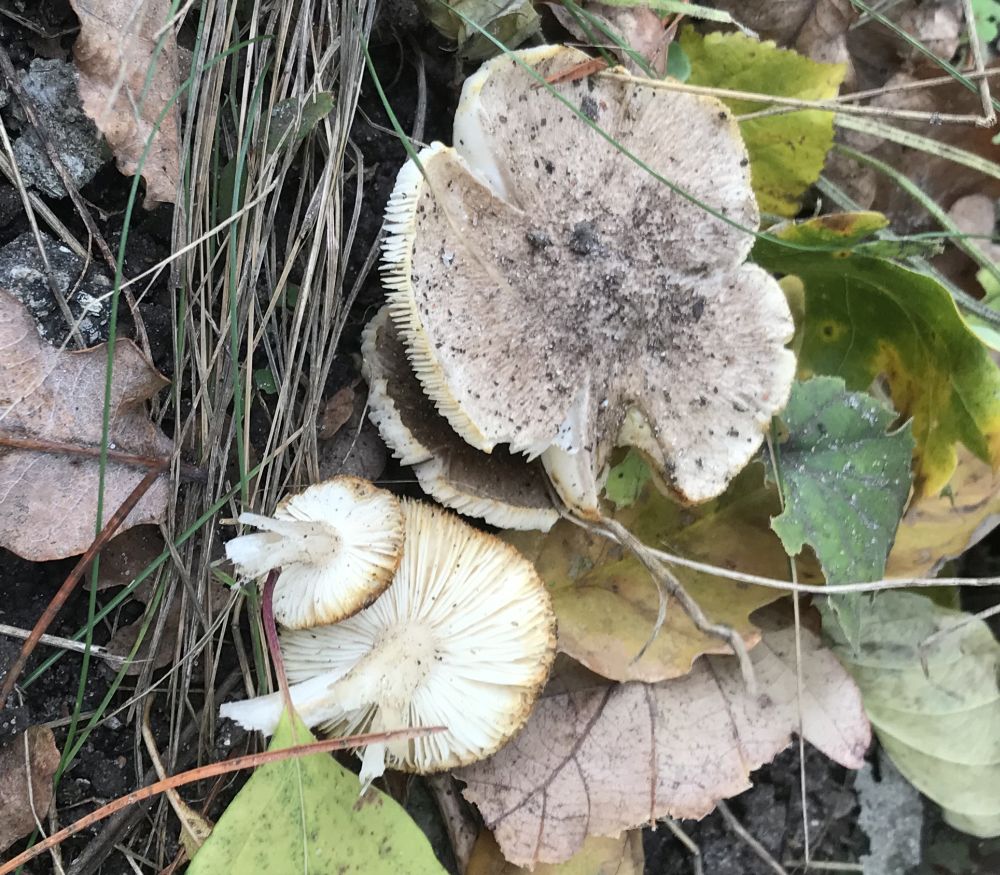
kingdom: Fungi
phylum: Basidiomycota
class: Agaricomycetes
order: Agaricales
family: Tricholomataceae
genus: Tricholoma
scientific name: Tricholoma scalpturatum
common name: gulplettet ridderhat
